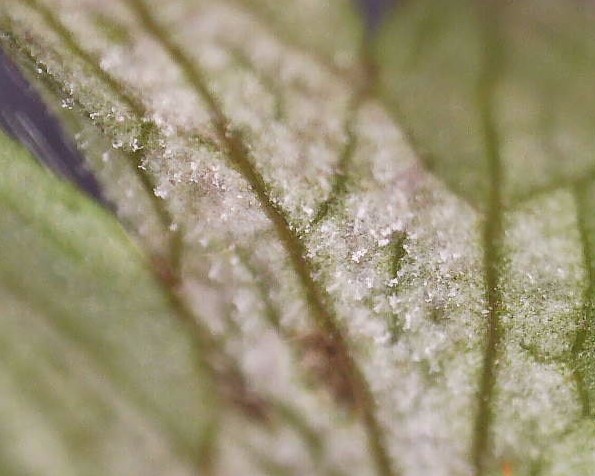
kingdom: Chromista
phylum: Oomycota
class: Peronosporea
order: Peronosporales
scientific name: Peronosporales
